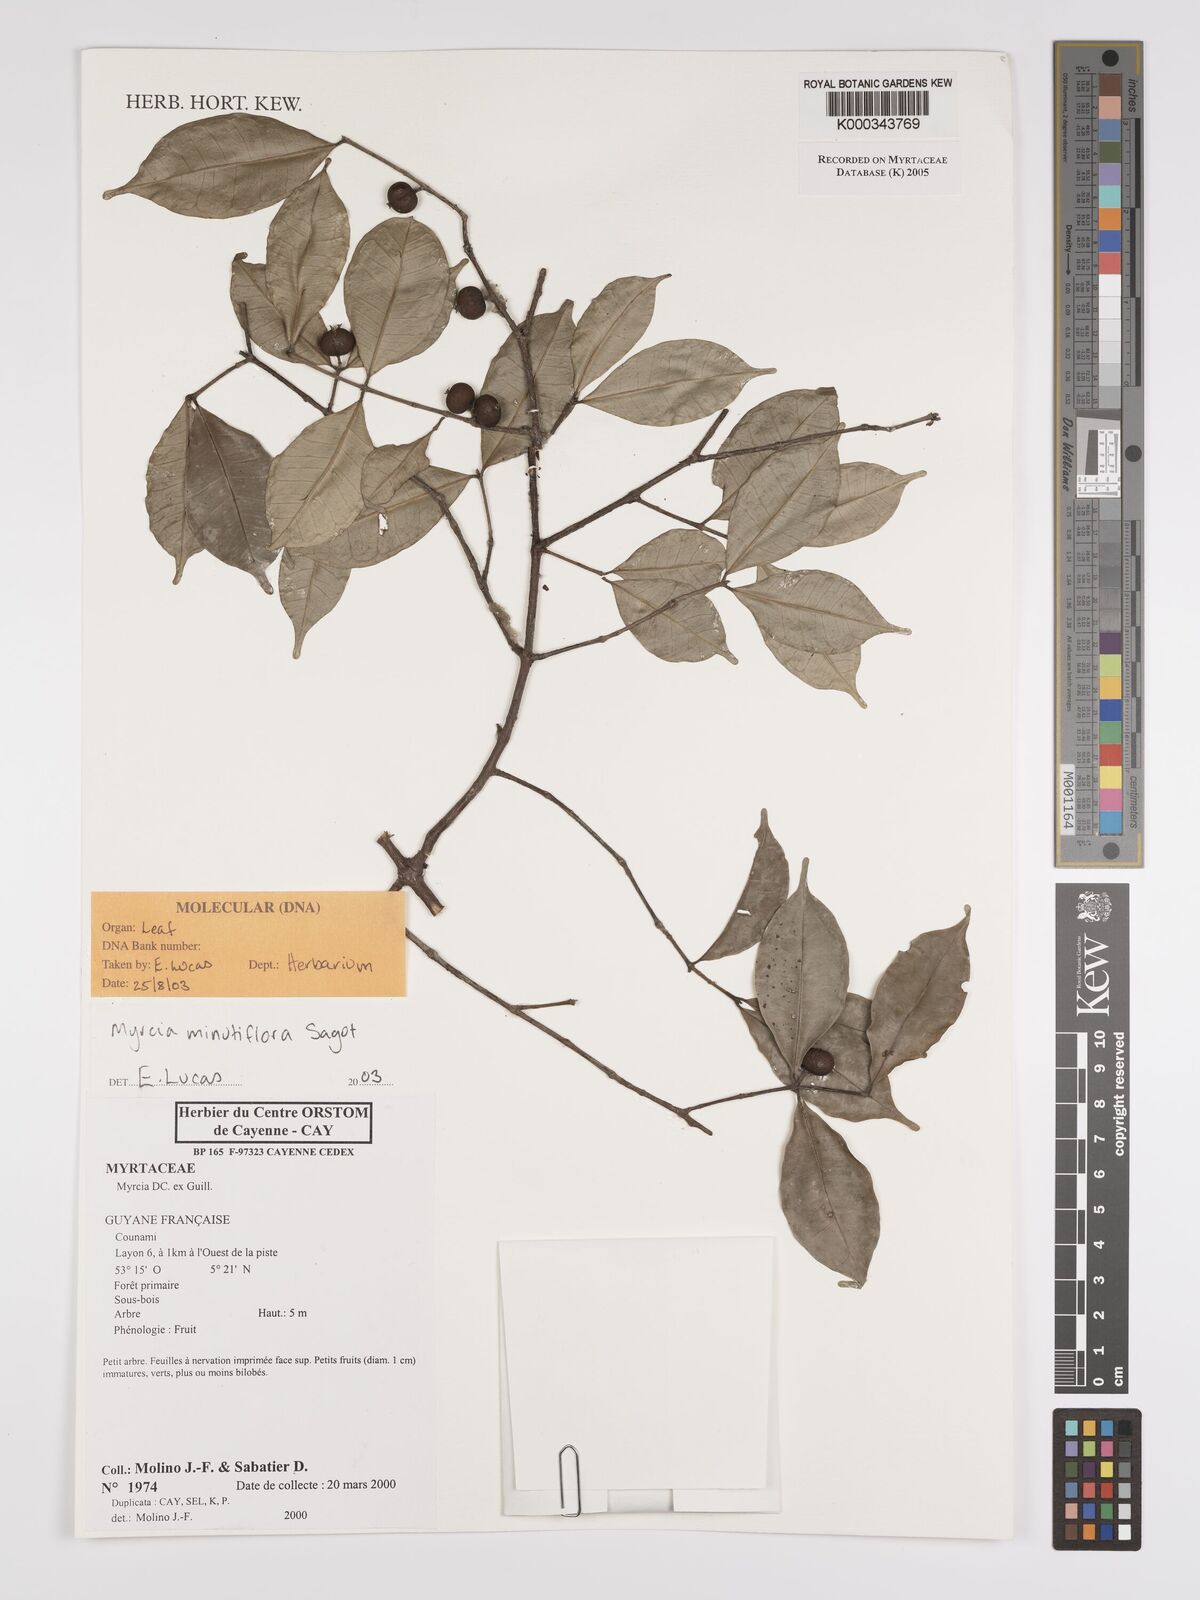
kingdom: Plantae
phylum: Tracheophyta
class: Magnoliopsida
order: Myrtales
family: Myrtaceae
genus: Myrcia
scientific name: Myrcia minutiflora
